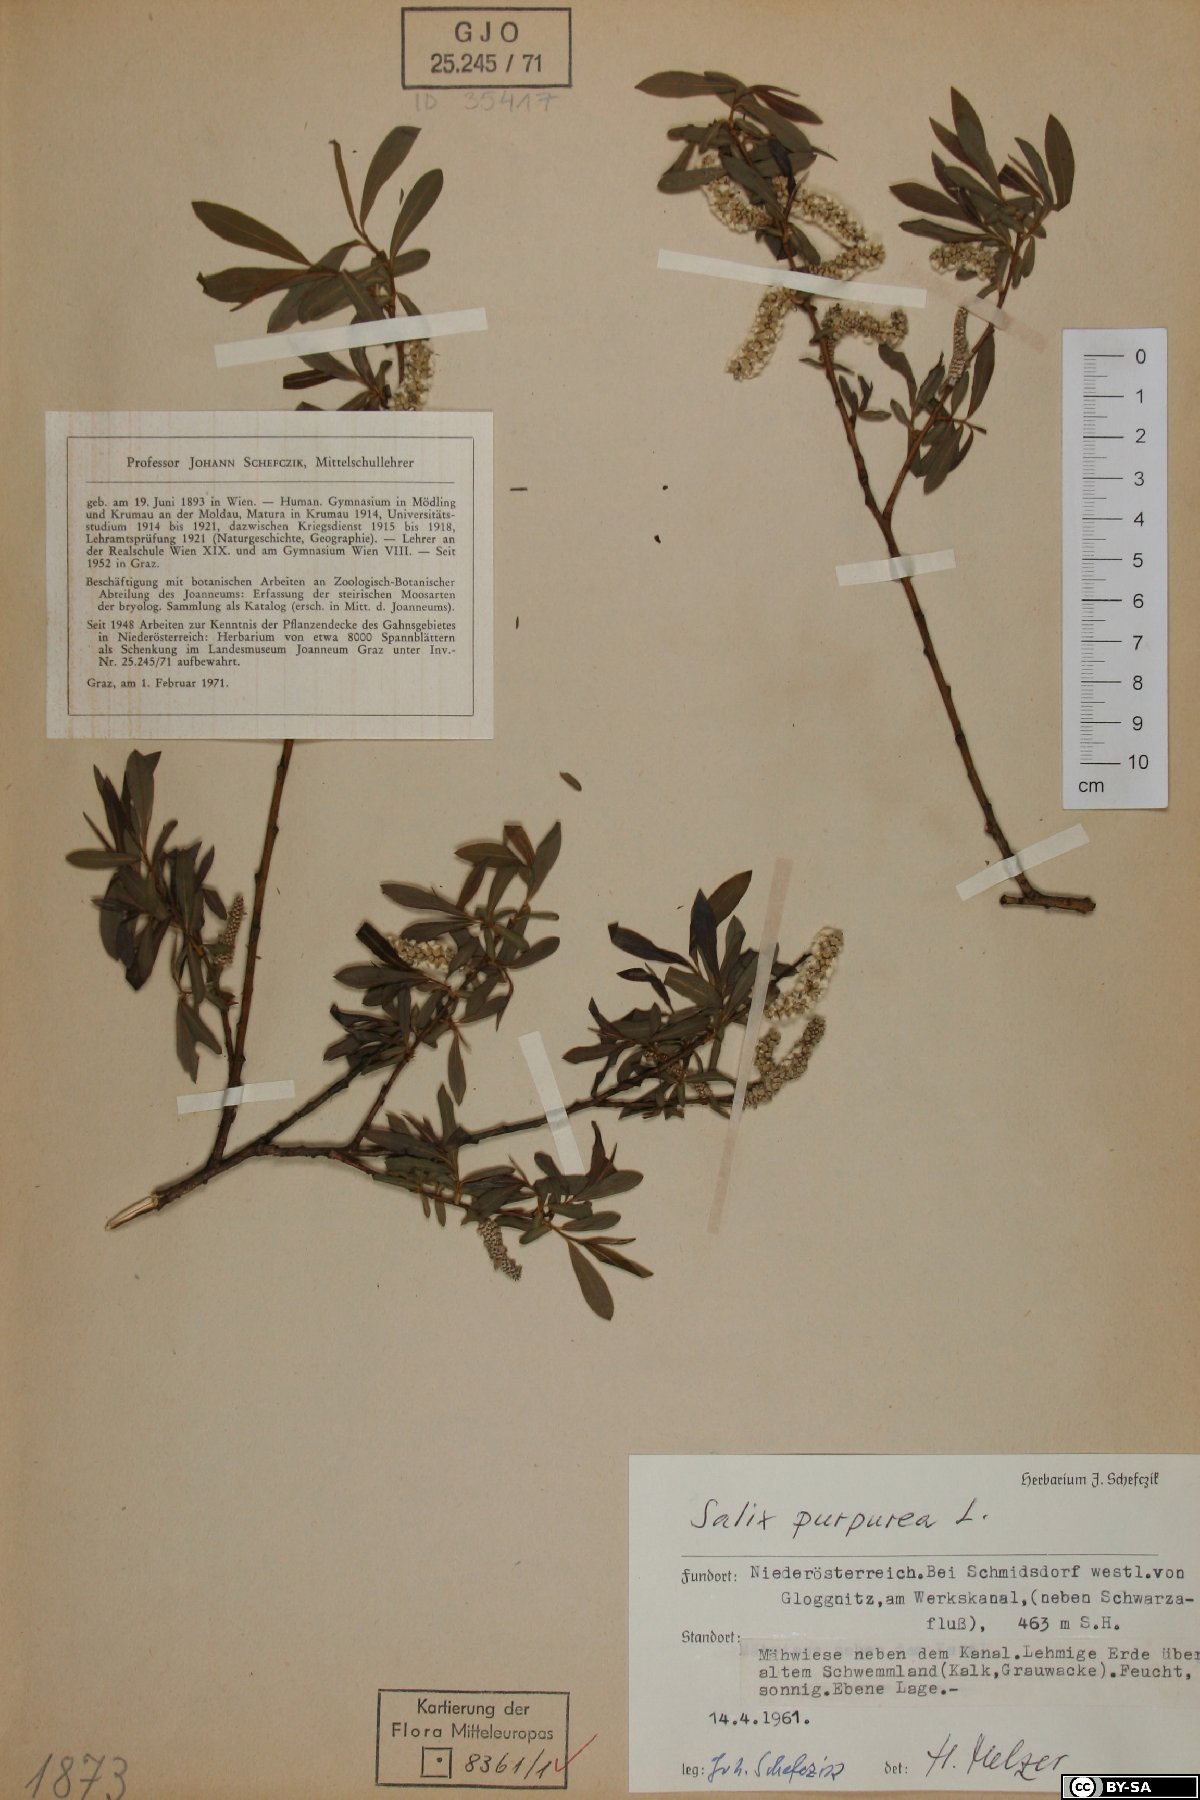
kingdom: Plantae
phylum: Tracheophyta
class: Magnoliopsida
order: Malpighiales
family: Salicaceae
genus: Salix
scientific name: Salix purpurea
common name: Purple willow
